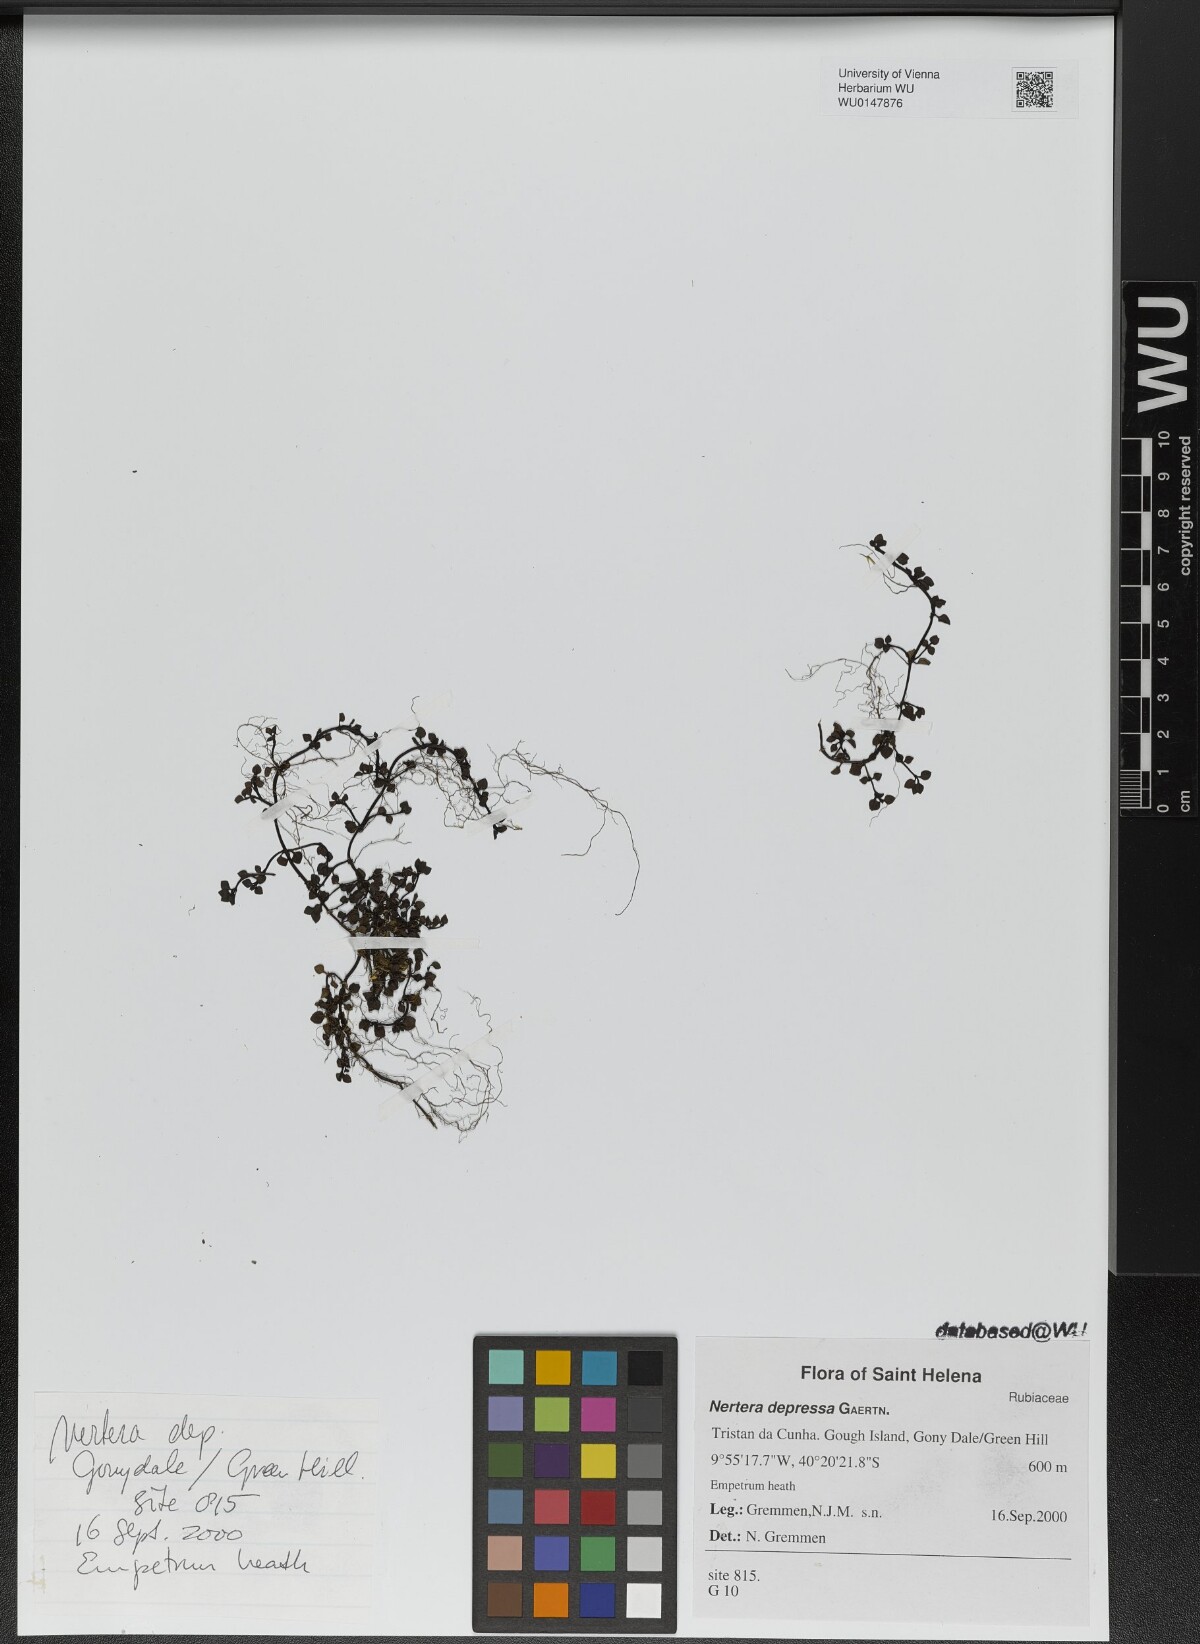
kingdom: Plantae
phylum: Tracheophyta
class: Magnoliopsida
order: Gentianales
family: Rubiaceae
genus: Nertera
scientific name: Nertera granadensis
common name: Beadplant
